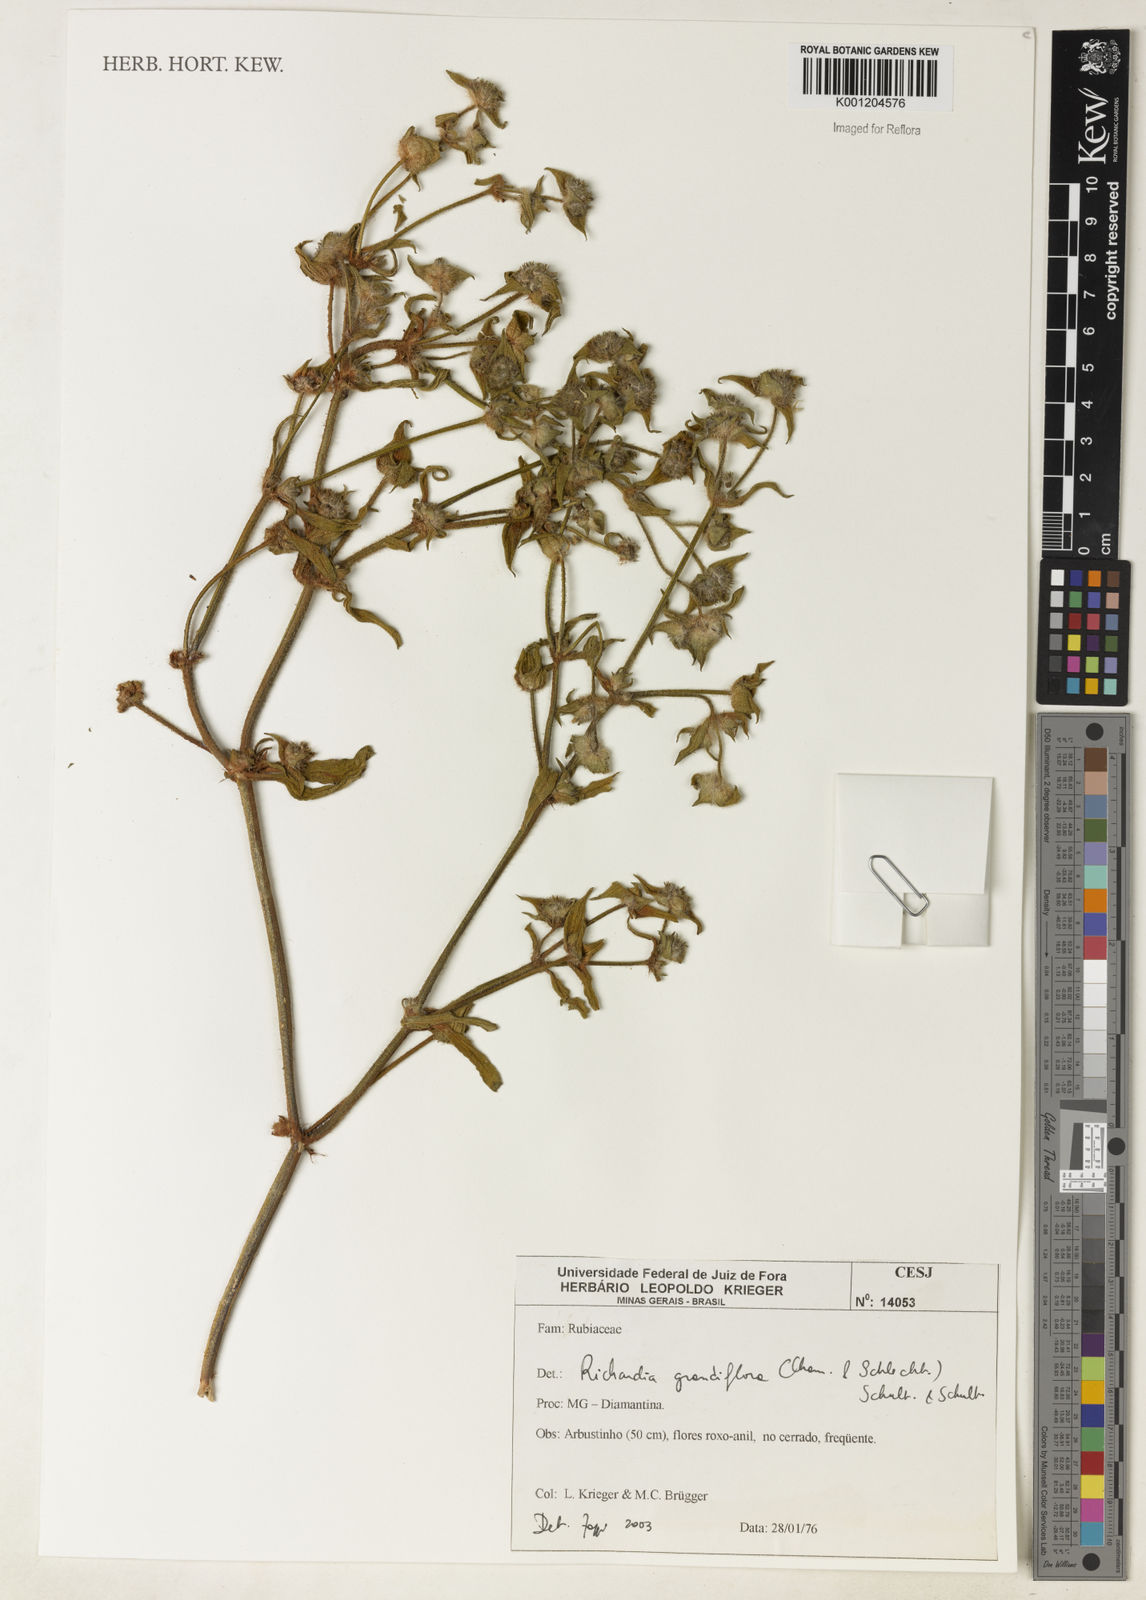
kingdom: Plantae
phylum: Tracheophyta
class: Magnoliopsida
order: Gentianales
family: Rubiaceae
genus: Richardia
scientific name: Richardia grandiflora
